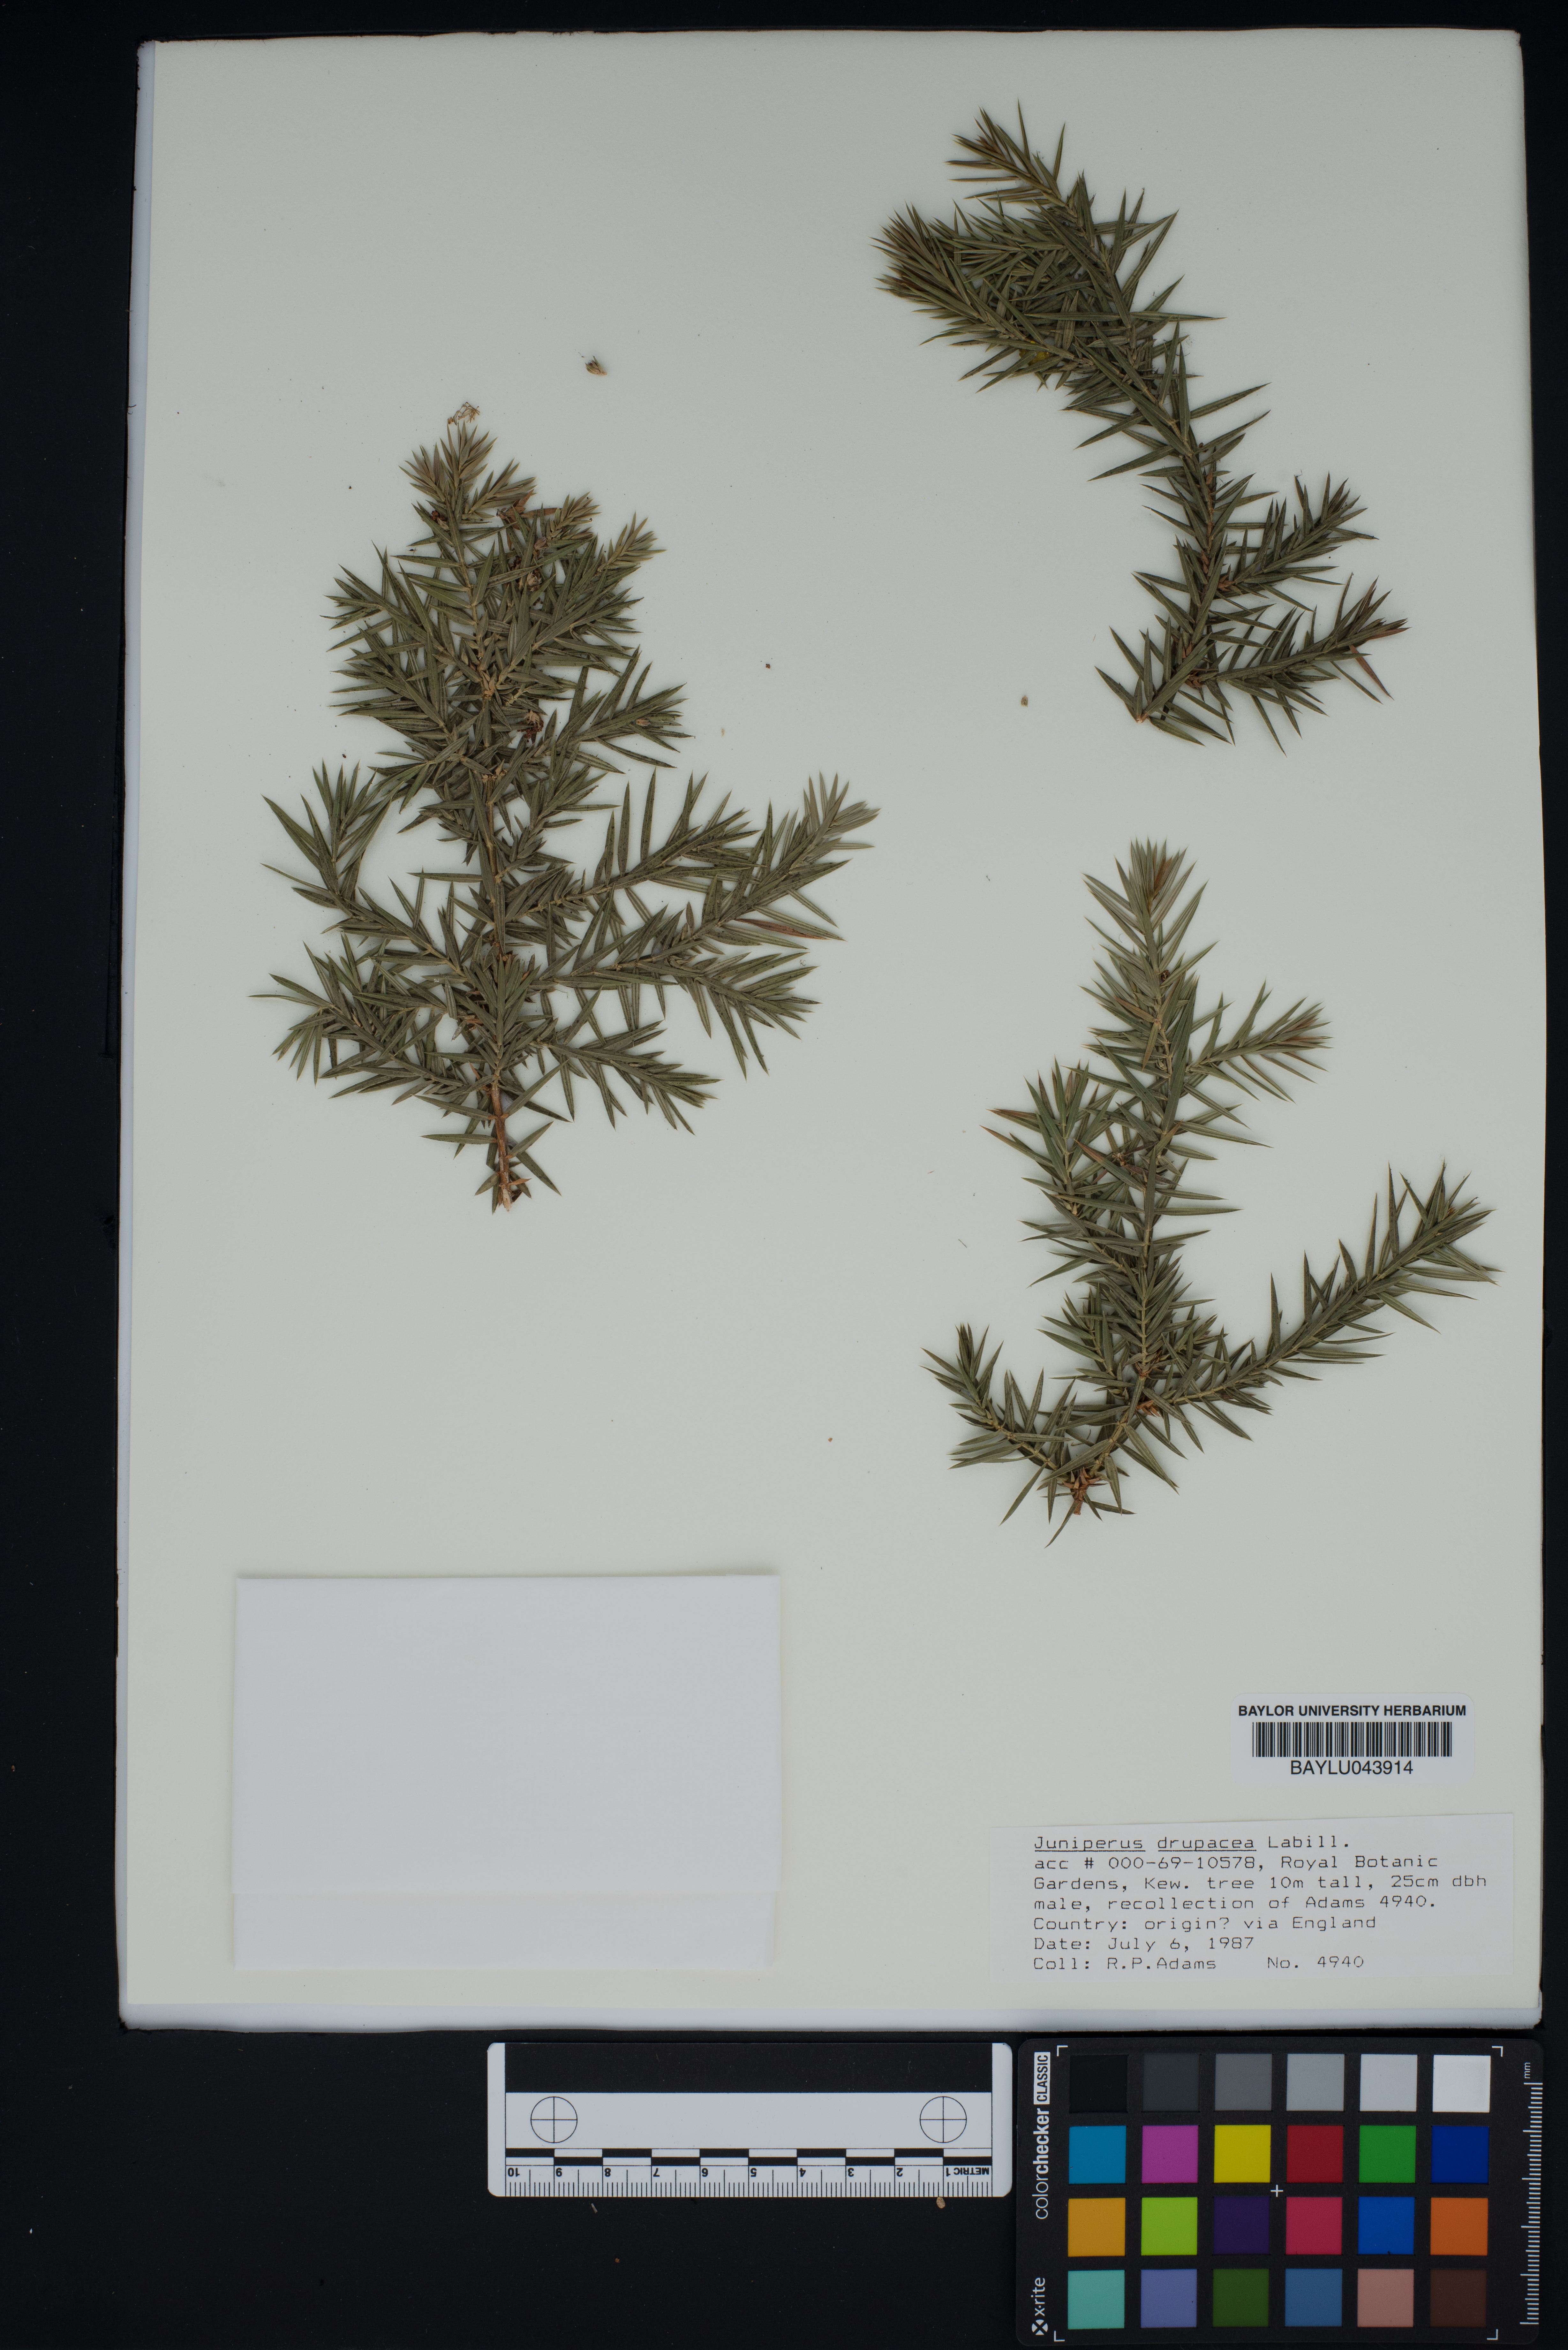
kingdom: Plantae
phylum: Tracheophyta
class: Pinopsida
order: Pinales
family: Cupressaceae
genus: Juniperus
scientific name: Juniperus drupacea
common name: Syrian juniper
